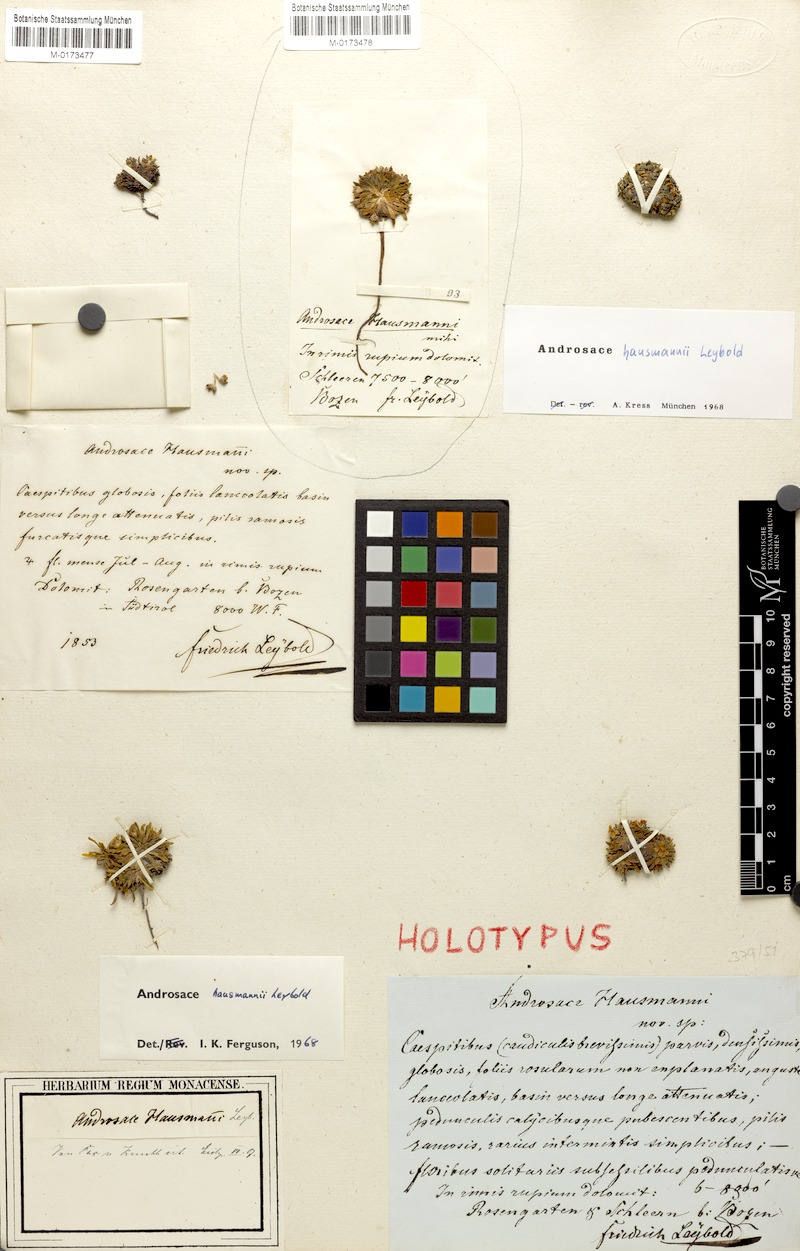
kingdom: Plantae
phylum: Tracheophyta
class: Magnoliopsida
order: Ericales
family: Primulaceae
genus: Androsace
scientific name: Androsace hausmannii
